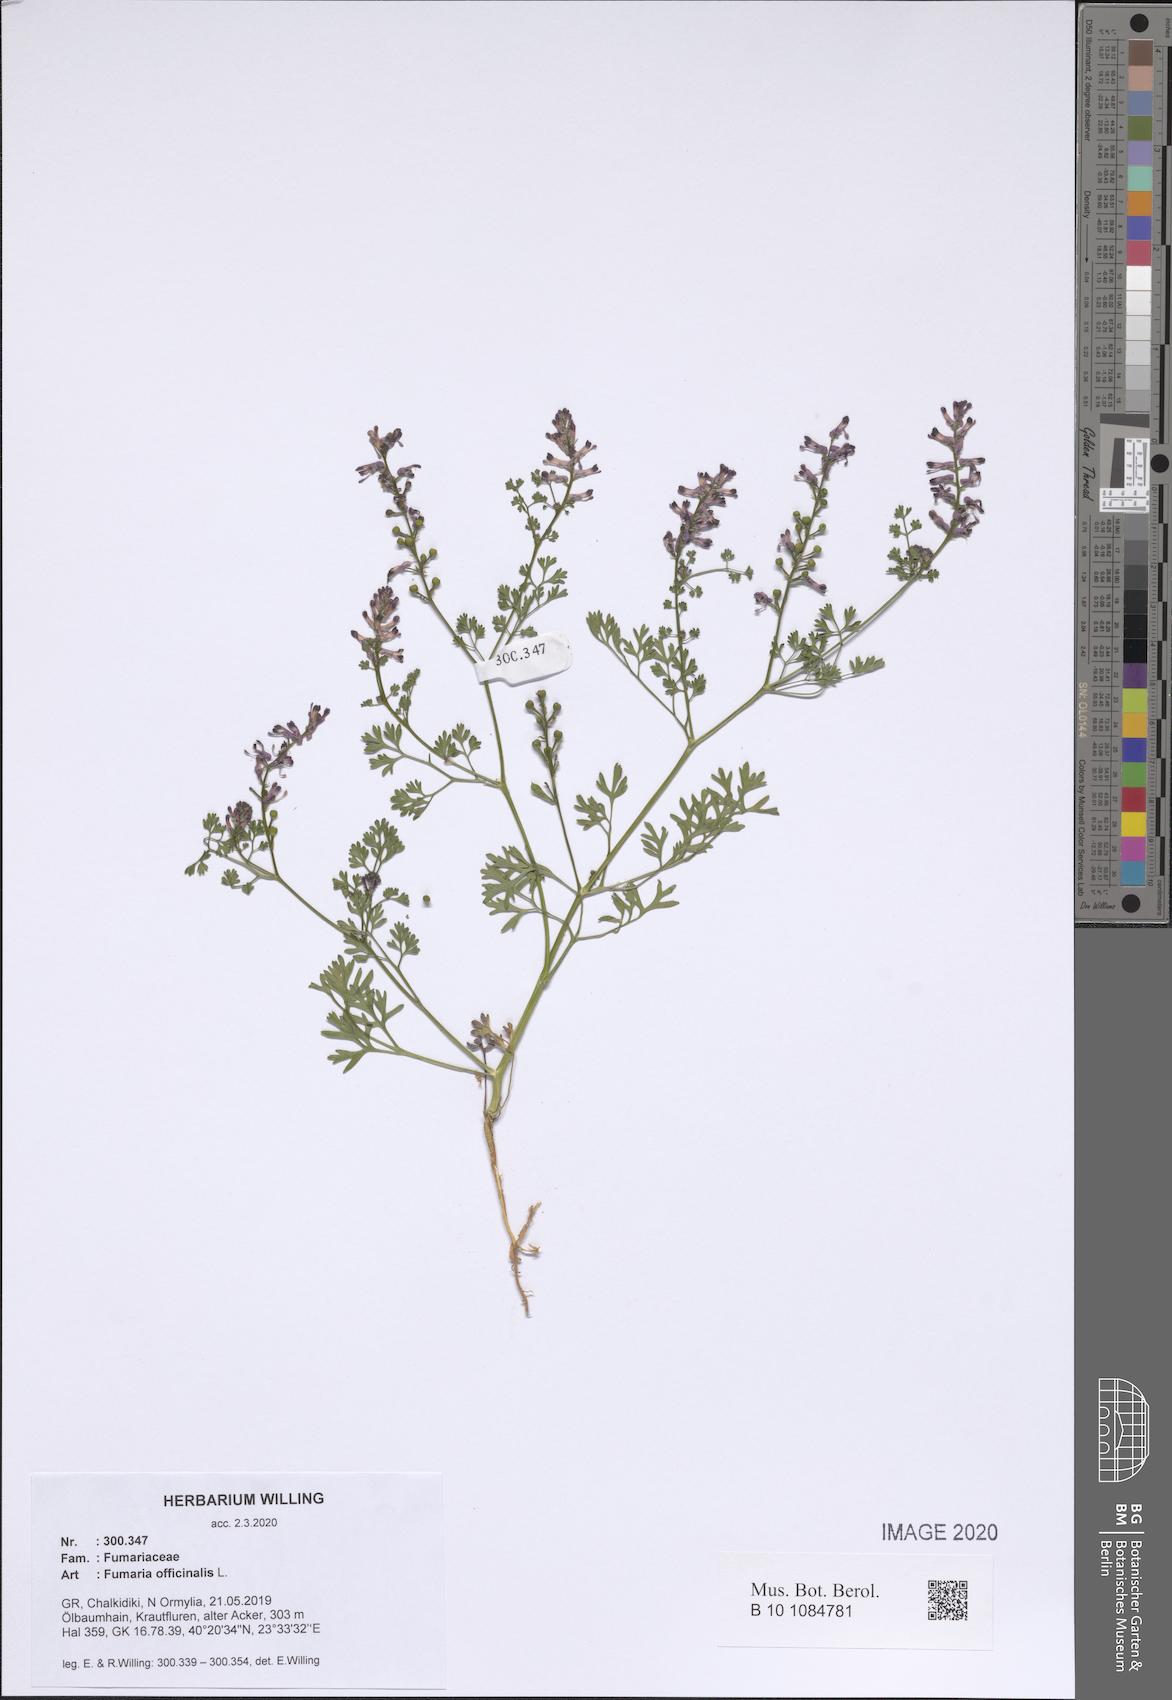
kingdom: Plantae
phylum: Tracheophyta
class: Magnoliopsida
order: Ranunculales
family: Papaveraceae
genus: Fumaria
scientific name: Fumaria officinalis
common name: Common fumitory
